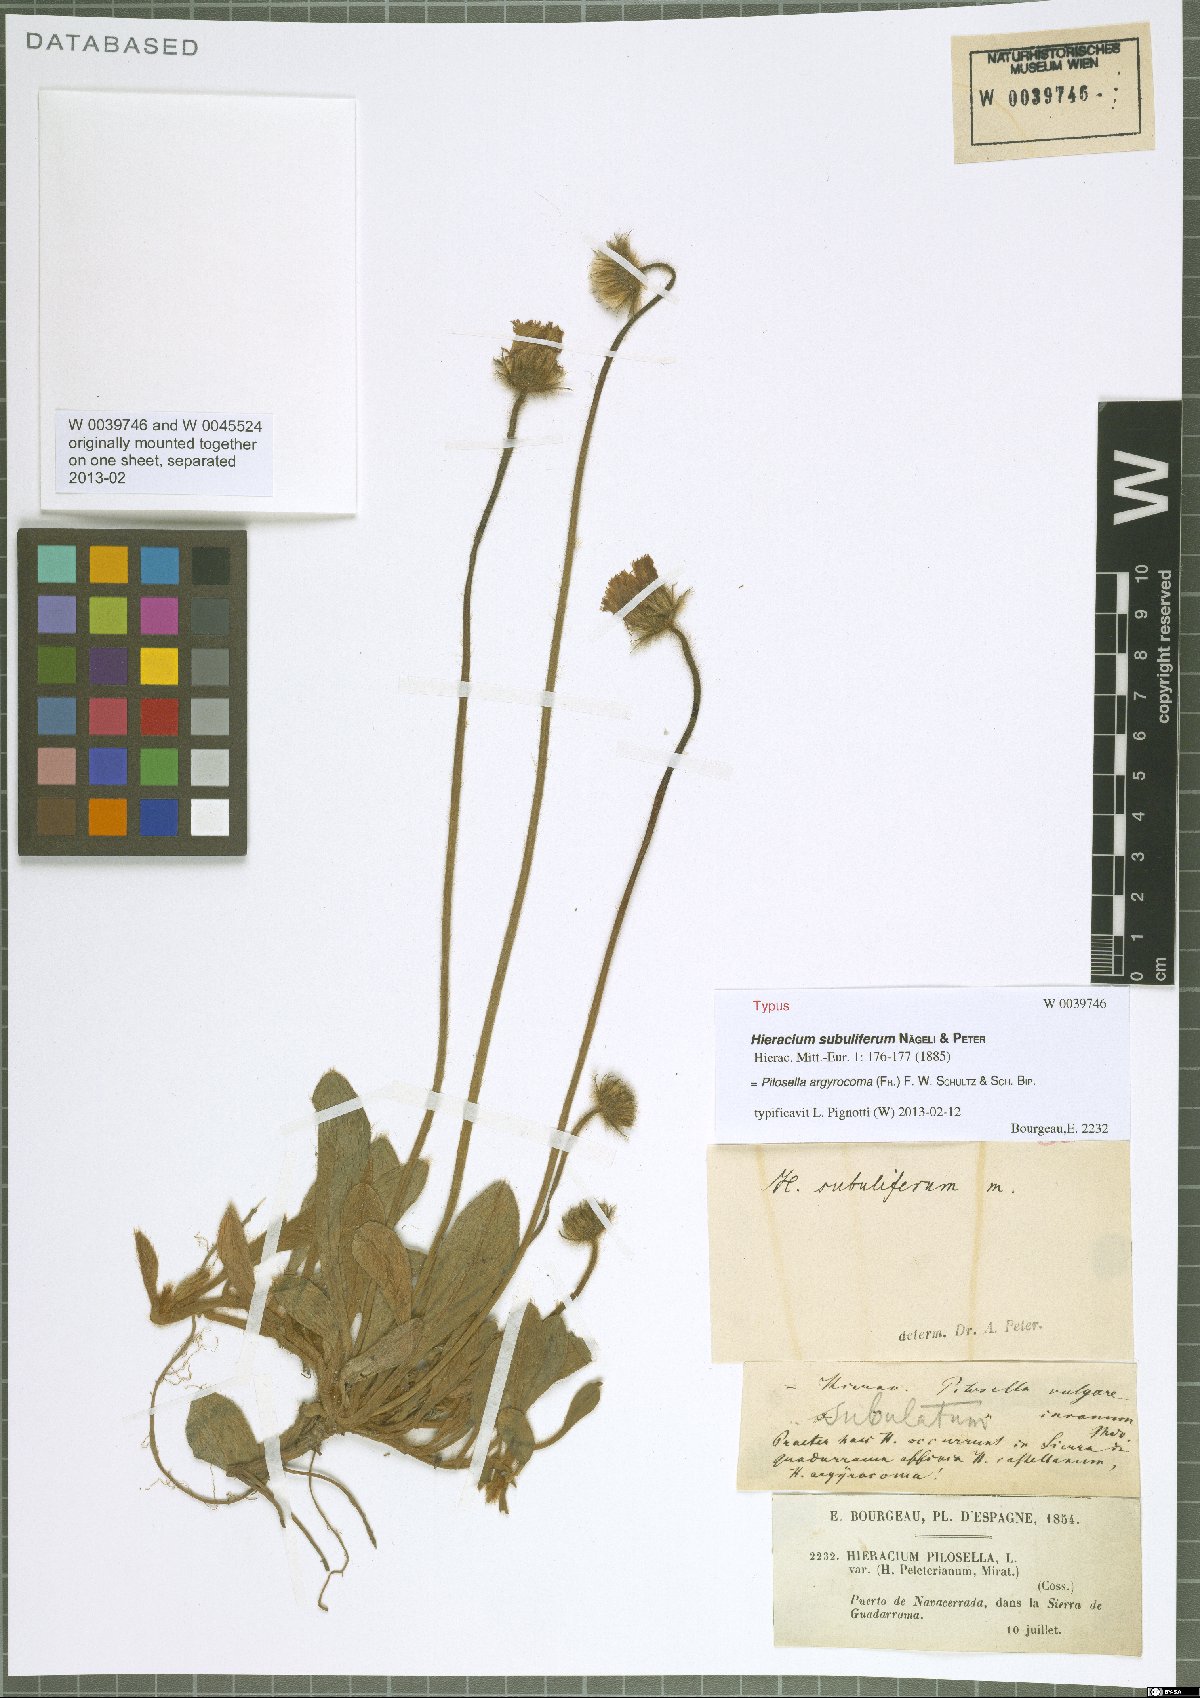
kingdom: Plantae
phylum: Tracheophyta
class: Magnoliopsida
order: Asterales
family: Asteraceae
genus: Pilosella
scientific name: Pilosella argyrocoma
